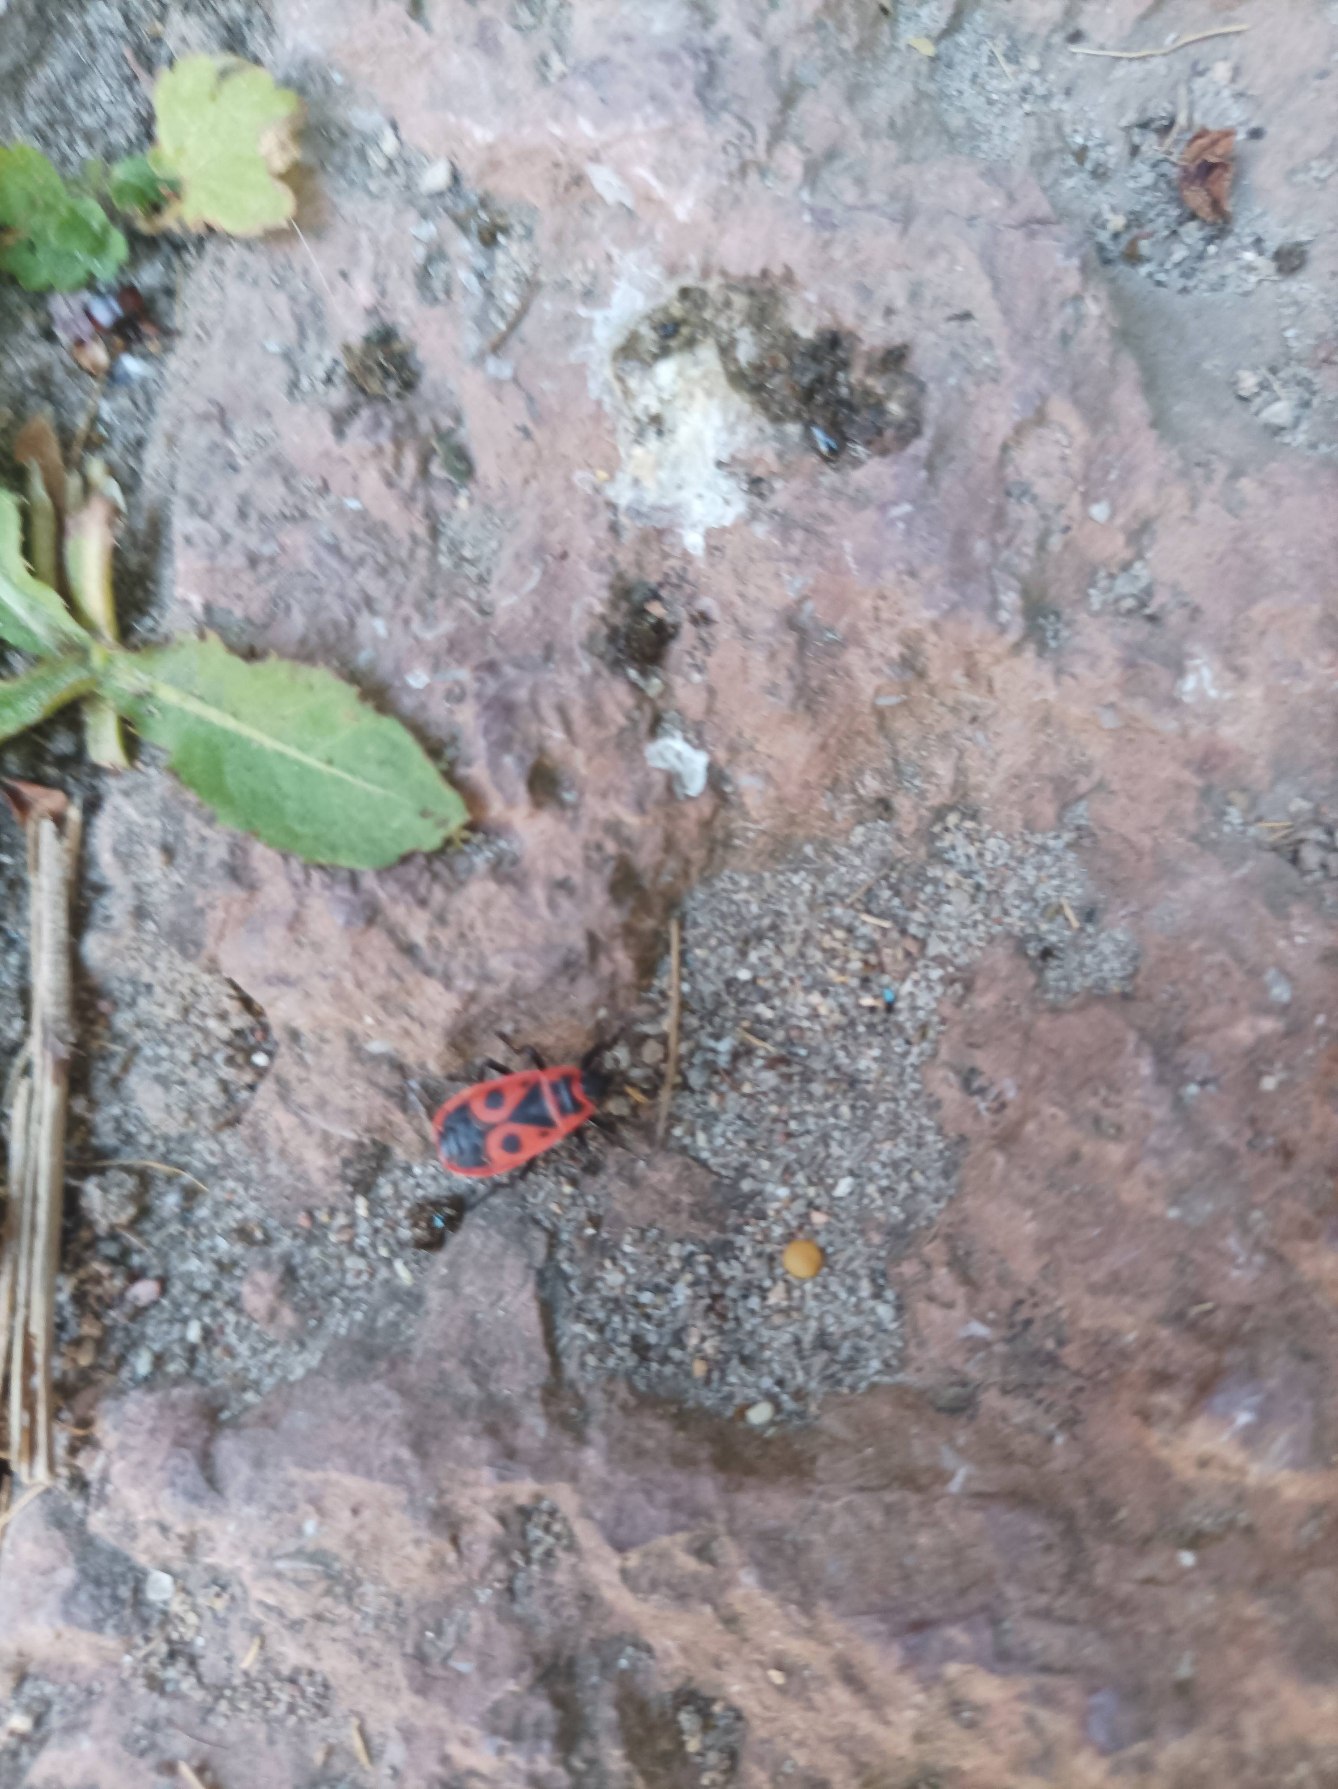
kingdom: Animalia
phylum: Arthropoda
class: Insecta
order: Hemiptera
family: Pyrrhocoridae
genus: Pyrrhocoris
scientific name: Pyrrhocoris apterus
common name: Ildtæge
